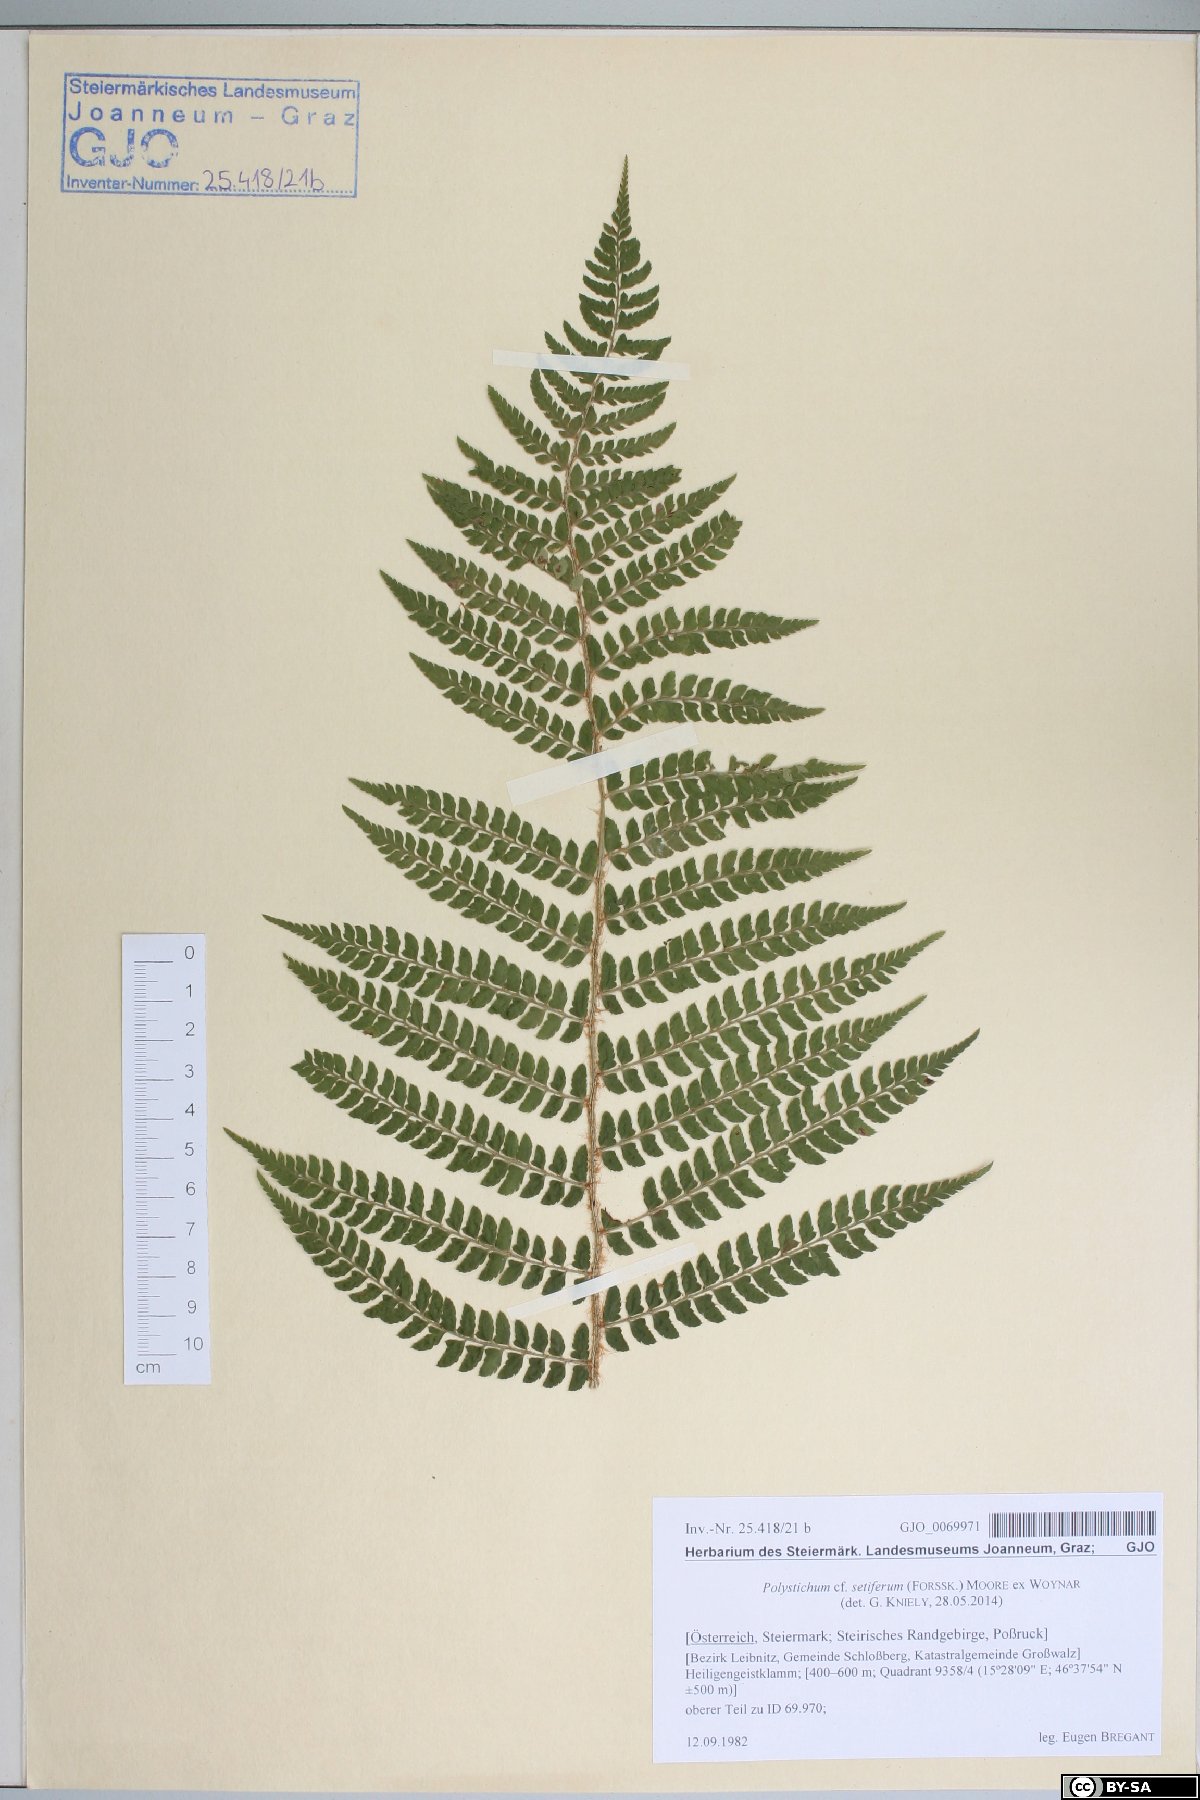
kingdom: Plantae
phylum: Tracheophyta
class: Polypodiopsida
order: Polypodiales
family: Dryopteridaceae
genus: Polystichum
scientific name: Polystichum setiferum
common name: Soft shield-fern
